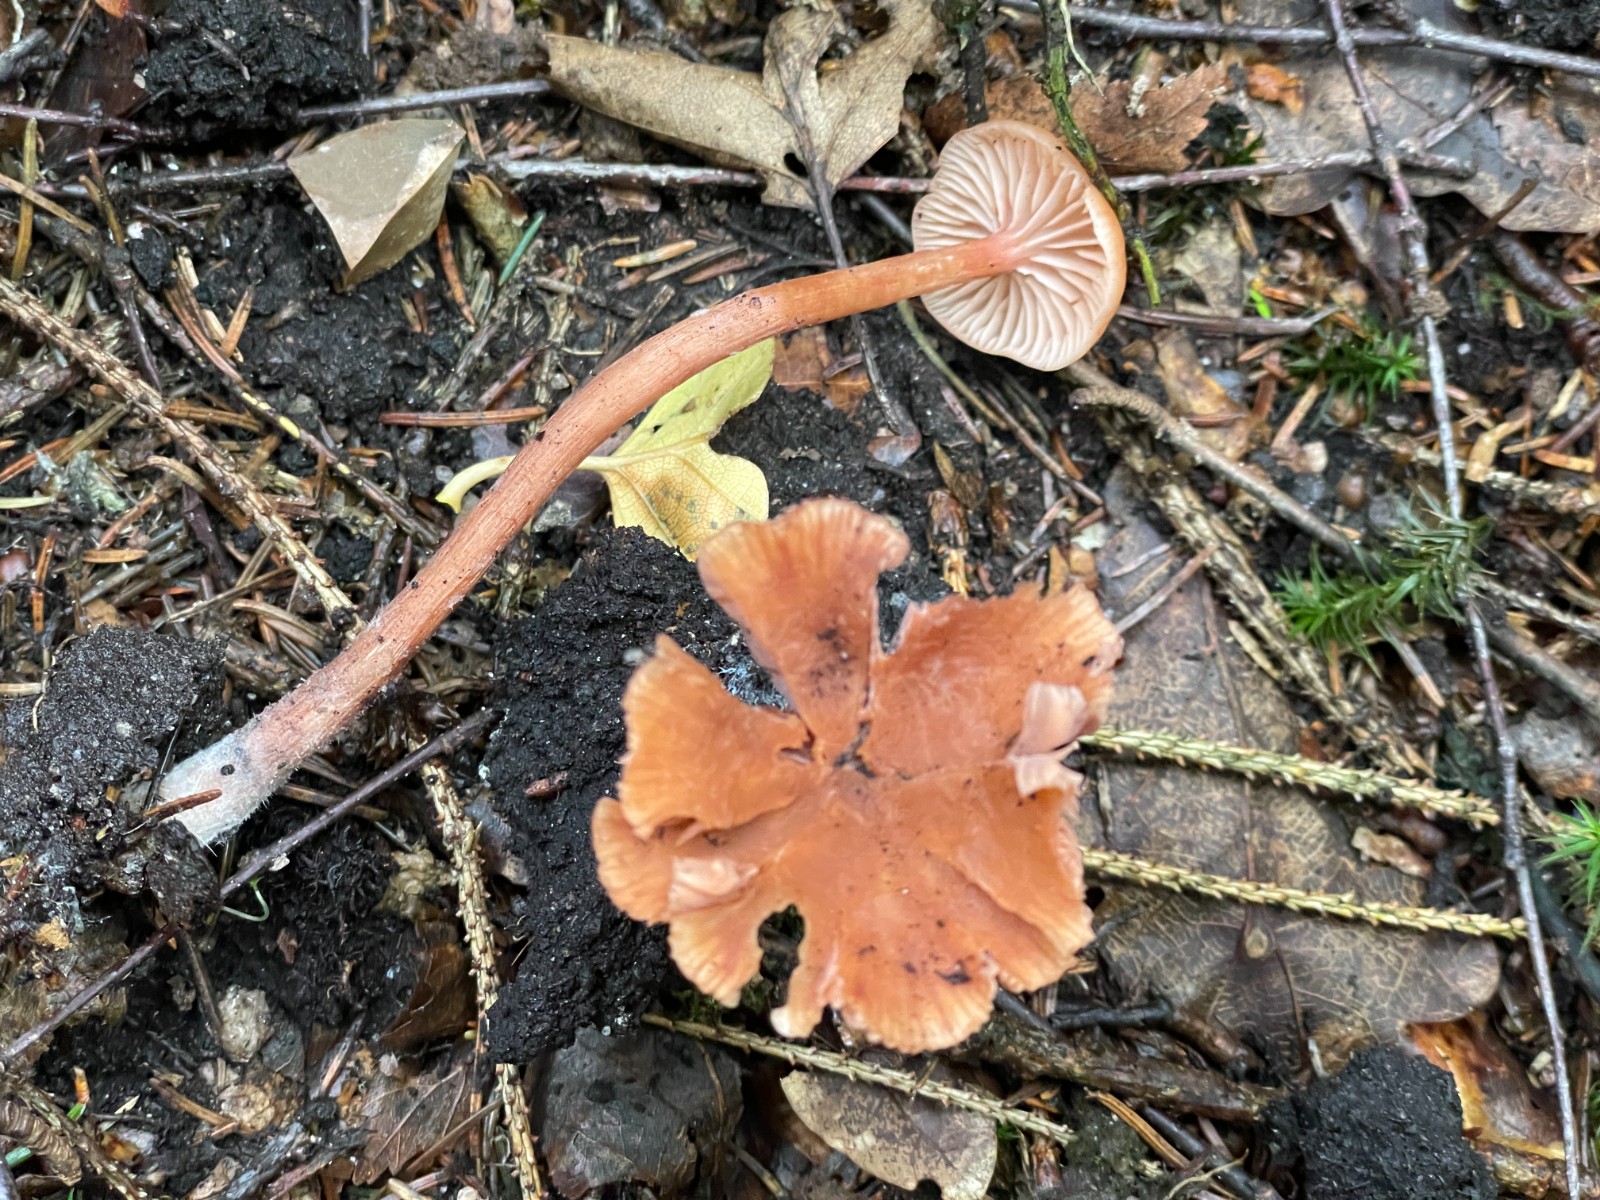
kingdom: Fungi
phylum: Basidiomycota
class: Agaricomycetes
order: Agaricales
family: Hydnangiaceae
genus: Laccaria
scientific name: Laccaria proxima
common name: stor ametysthat
